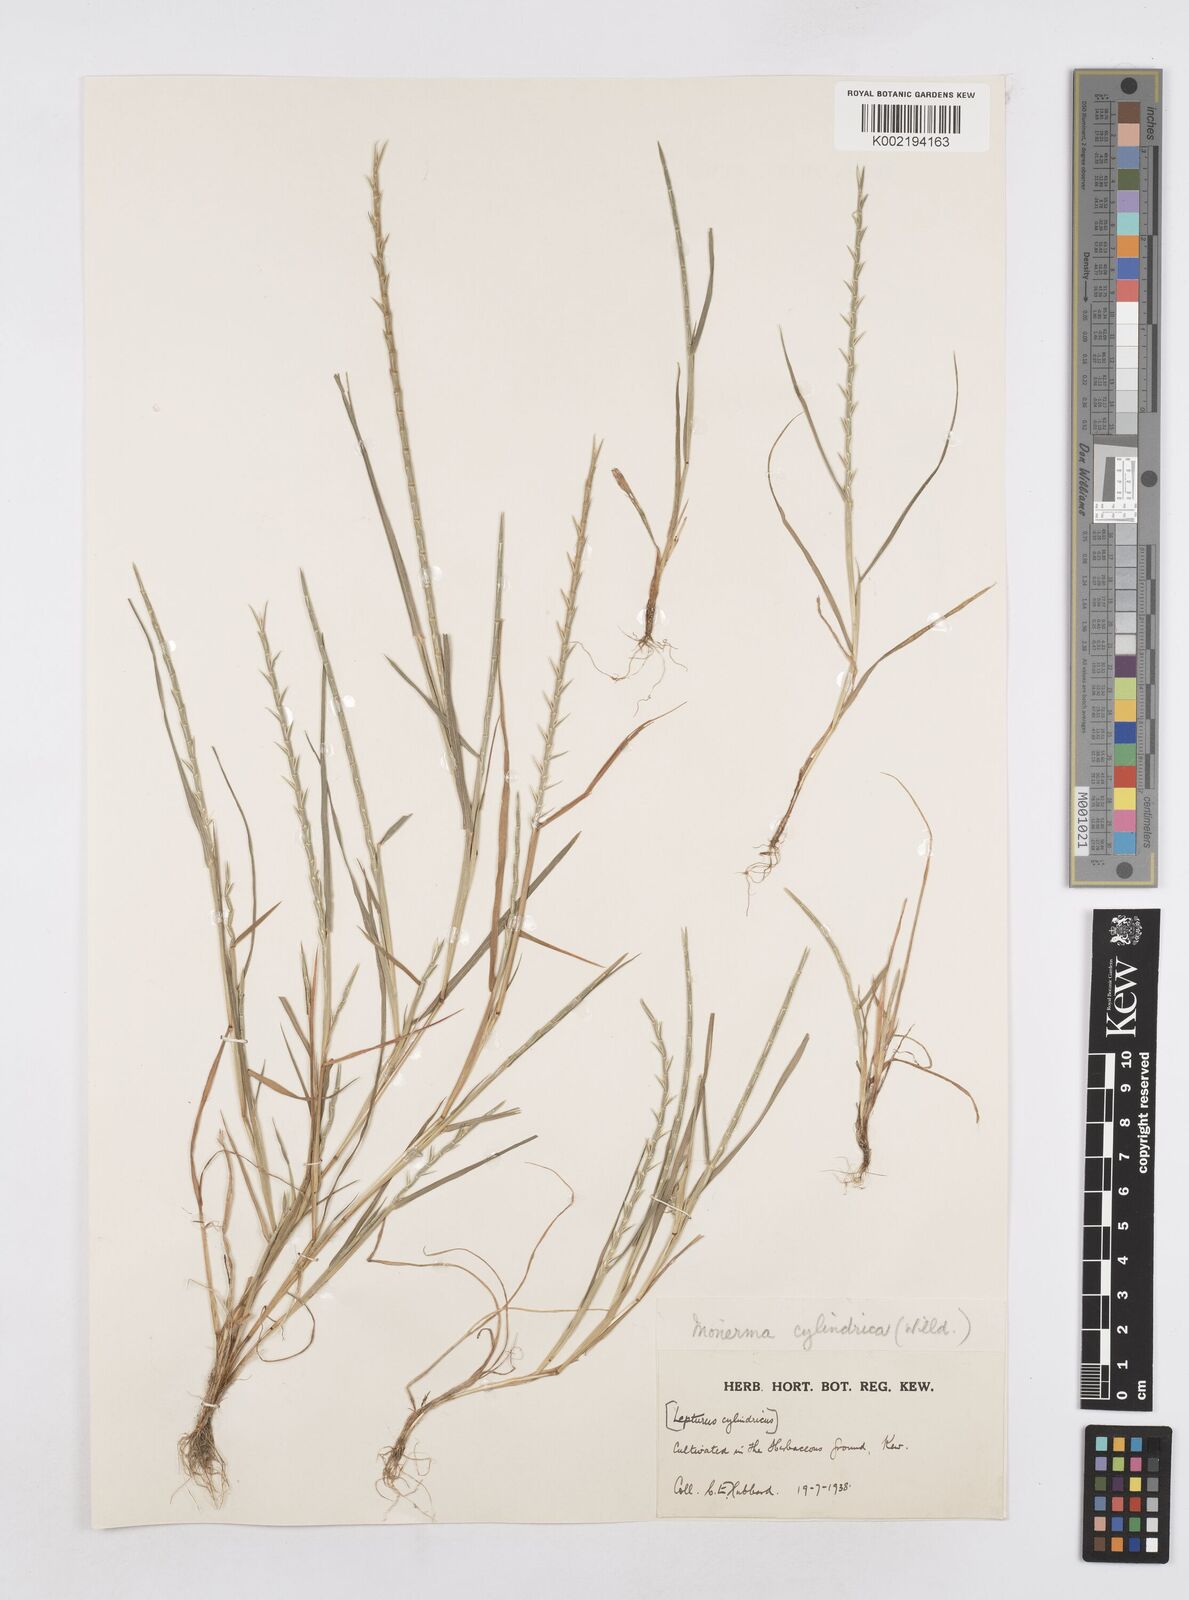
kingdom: Plantae
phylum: Tracheophyta
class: Liliopsida
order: Poales
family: Poaceae
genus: Parapholis
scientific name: Parapholis cylindrica
